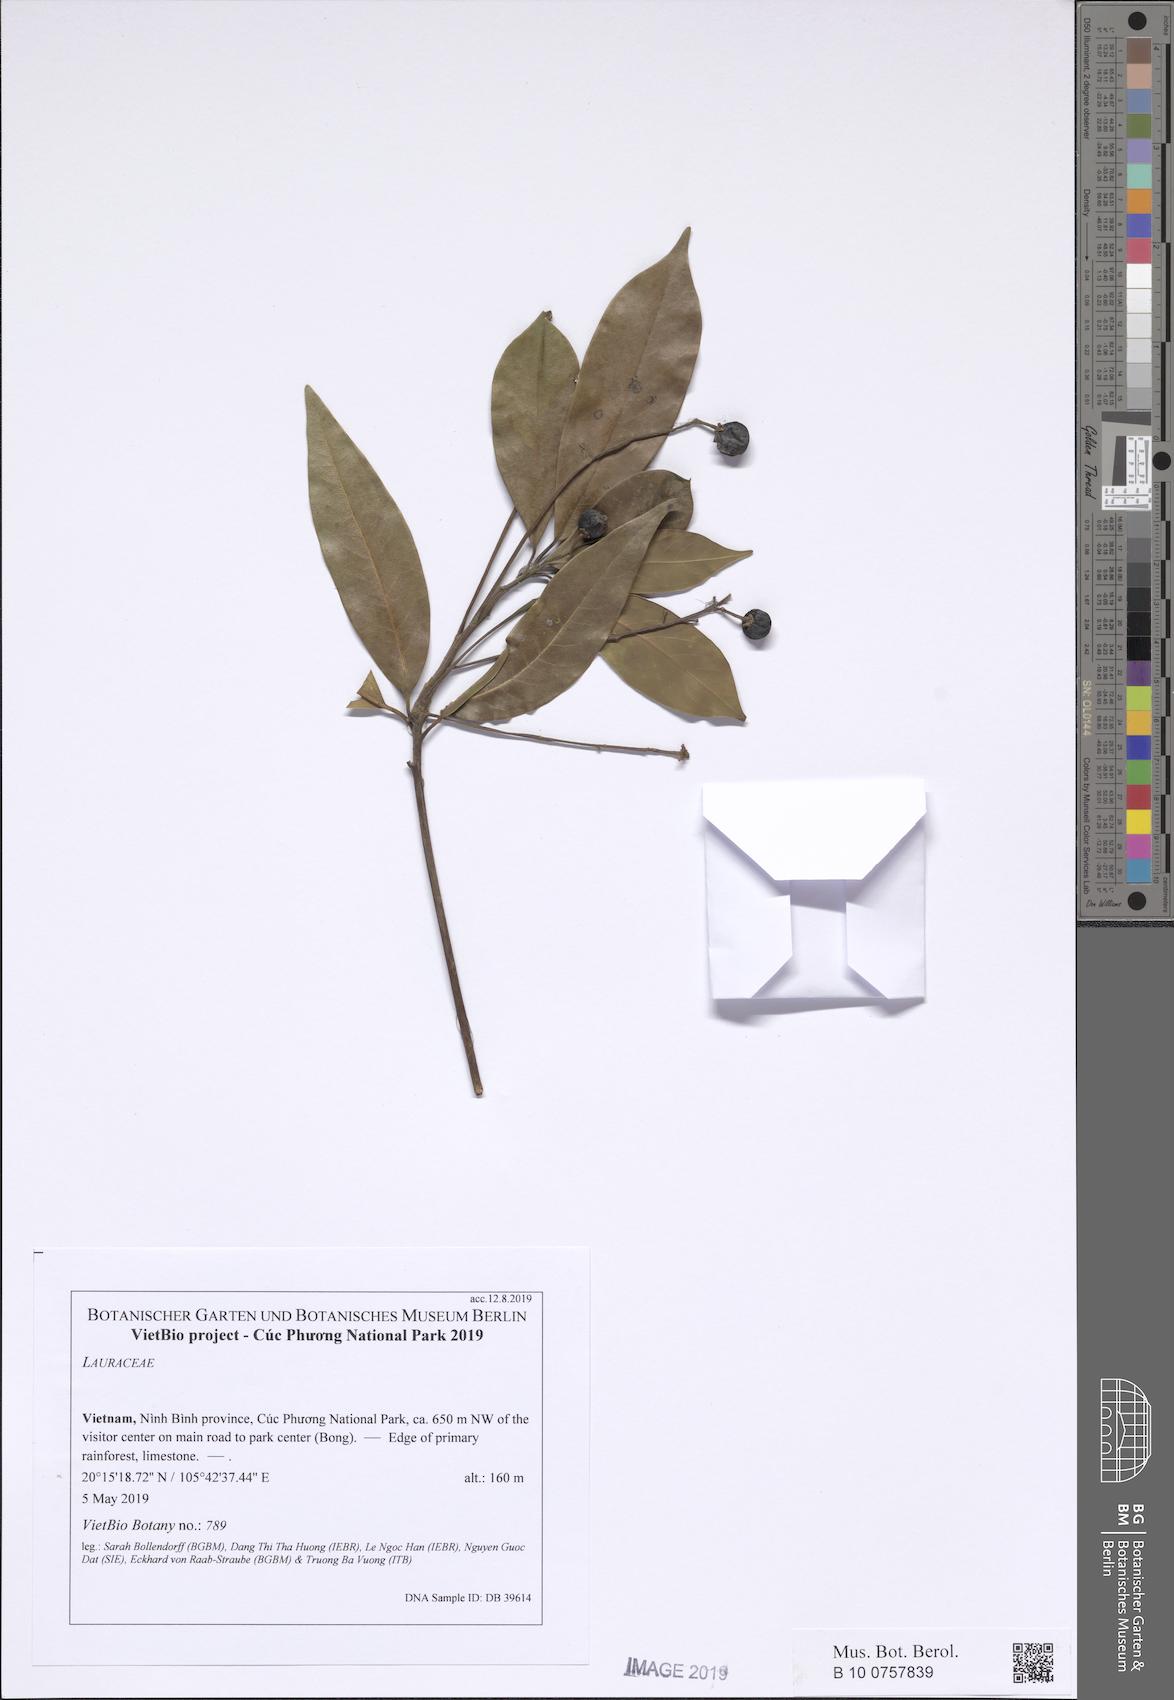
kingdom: Plantae
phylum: Tracheophyta
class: Magnoliopsida
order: Laurales
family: Lauraceae
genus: Machilus
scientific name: Machilus thunbergii
